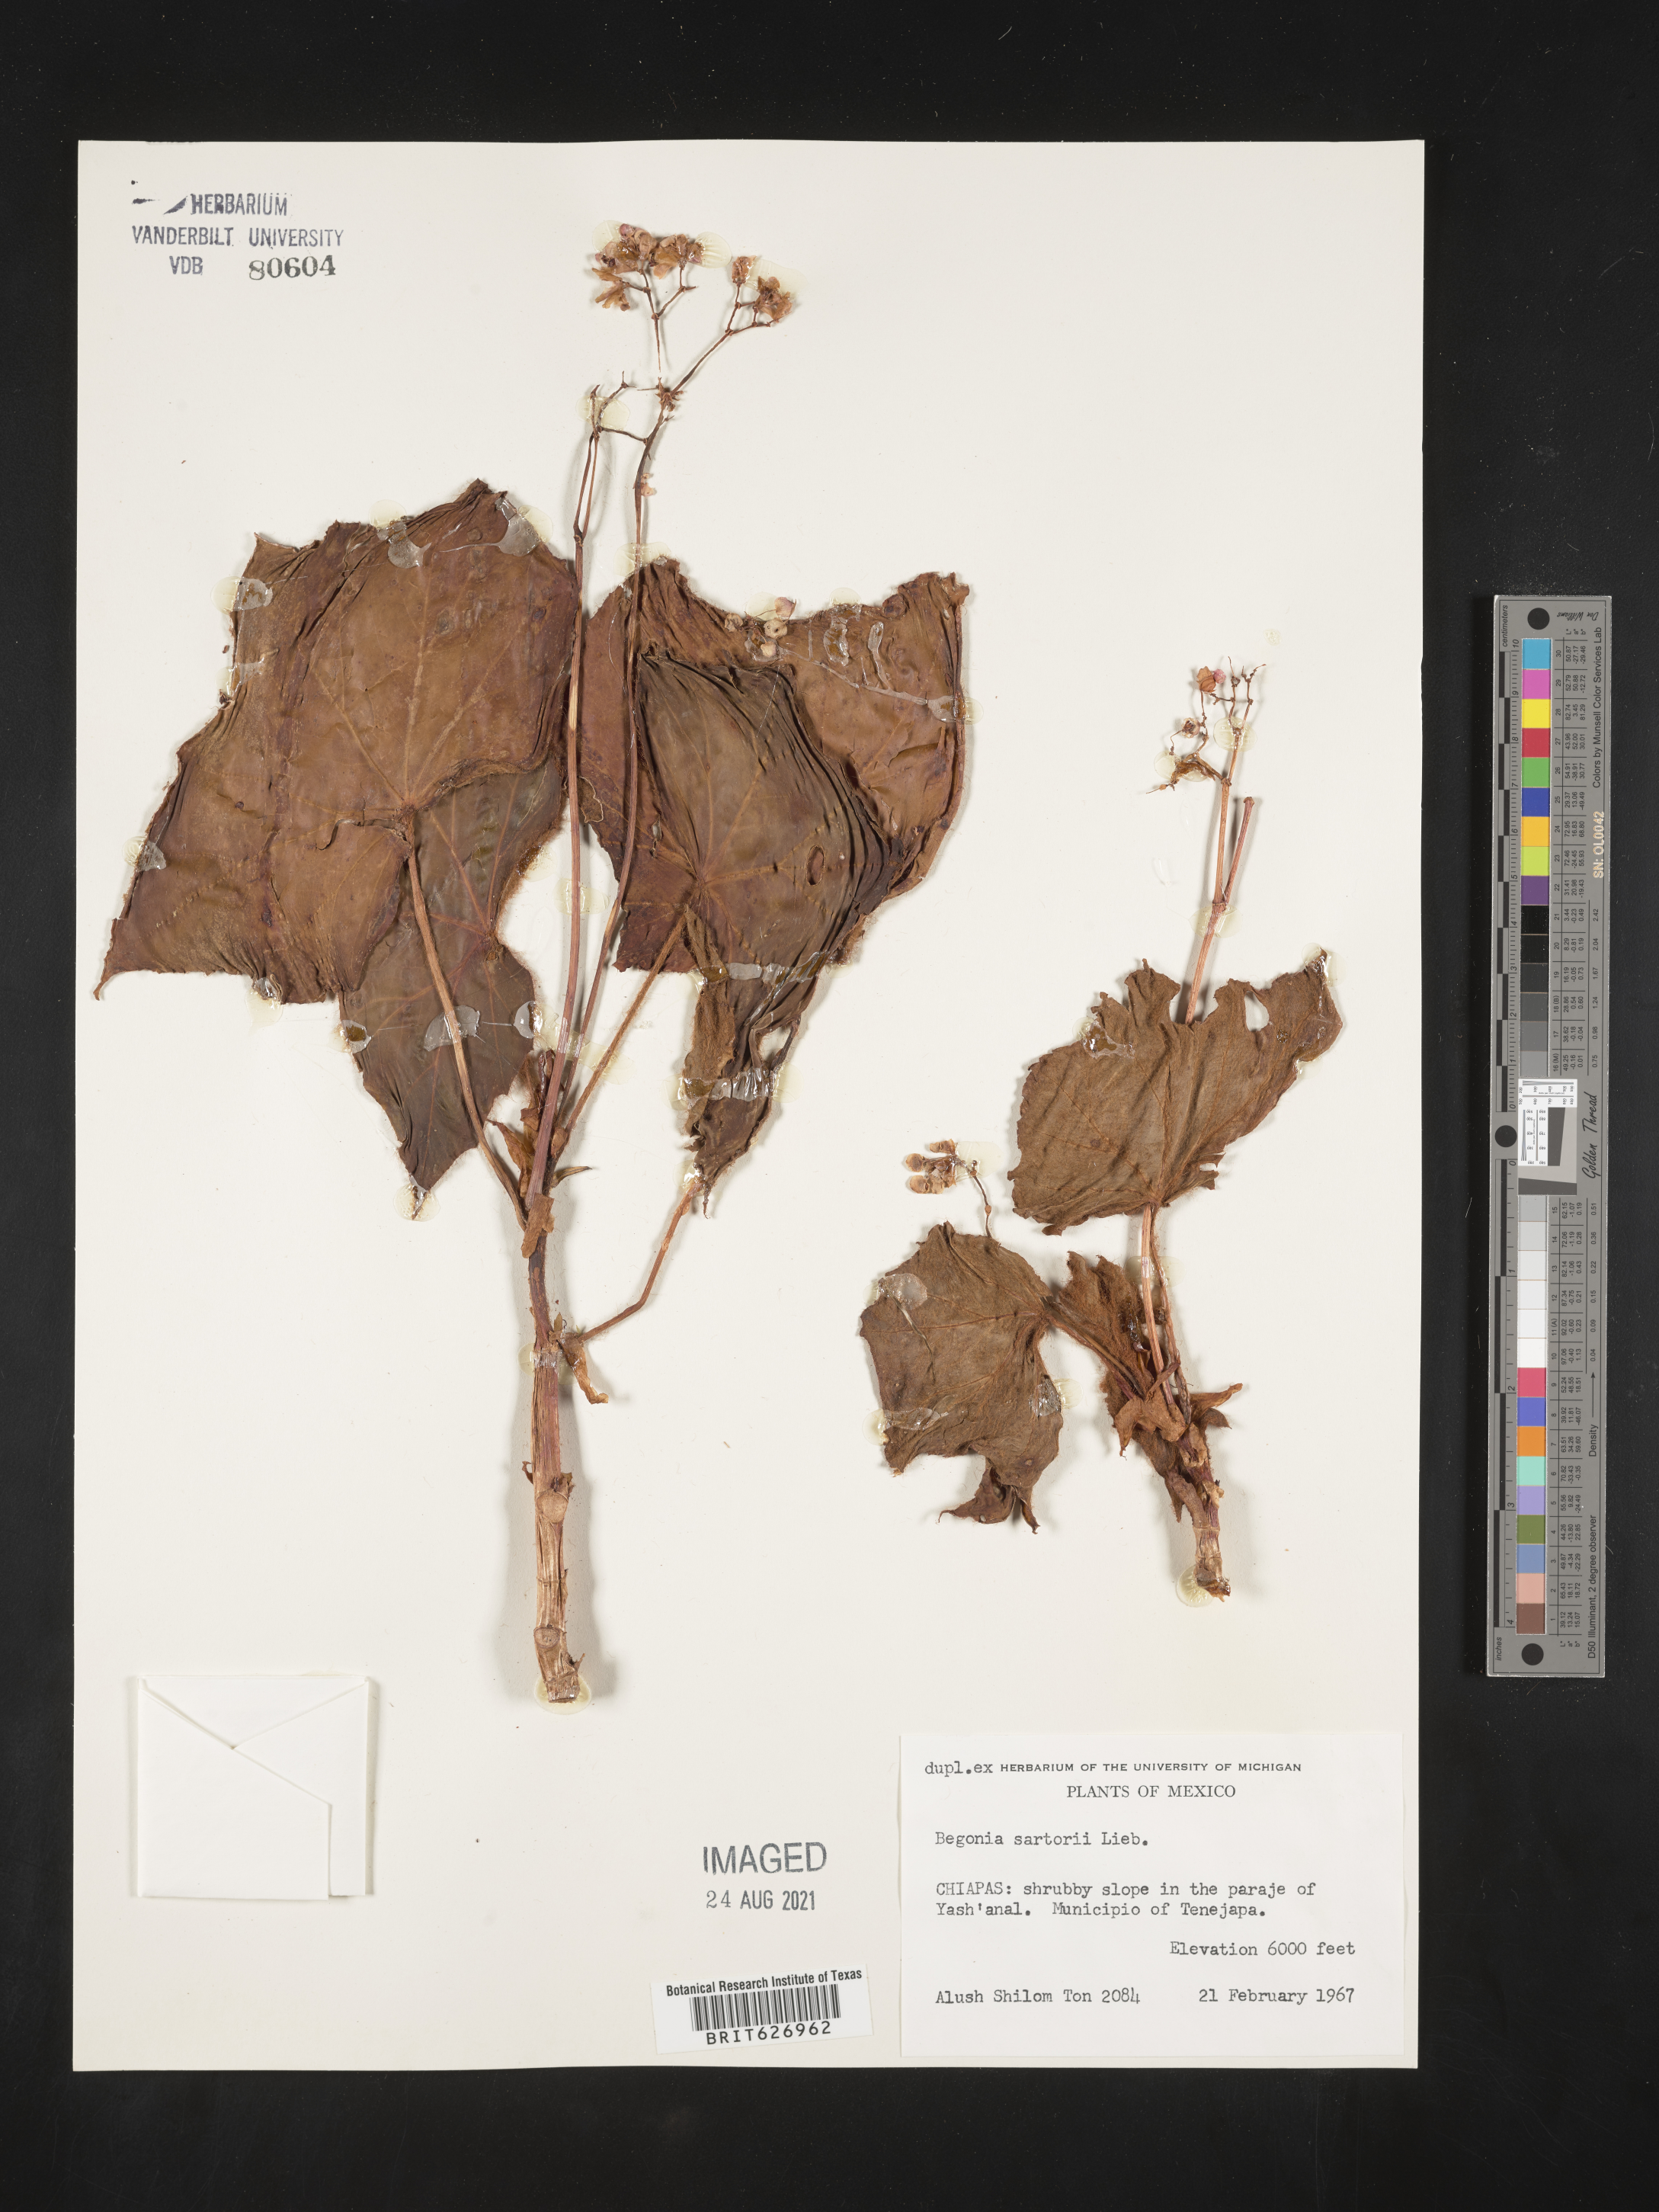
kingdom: Plantae
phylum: Tracheophyta
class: Magnoliopsida
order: Cucurbitales
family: Begoniaceae
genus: Begonia
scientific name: Begonia
